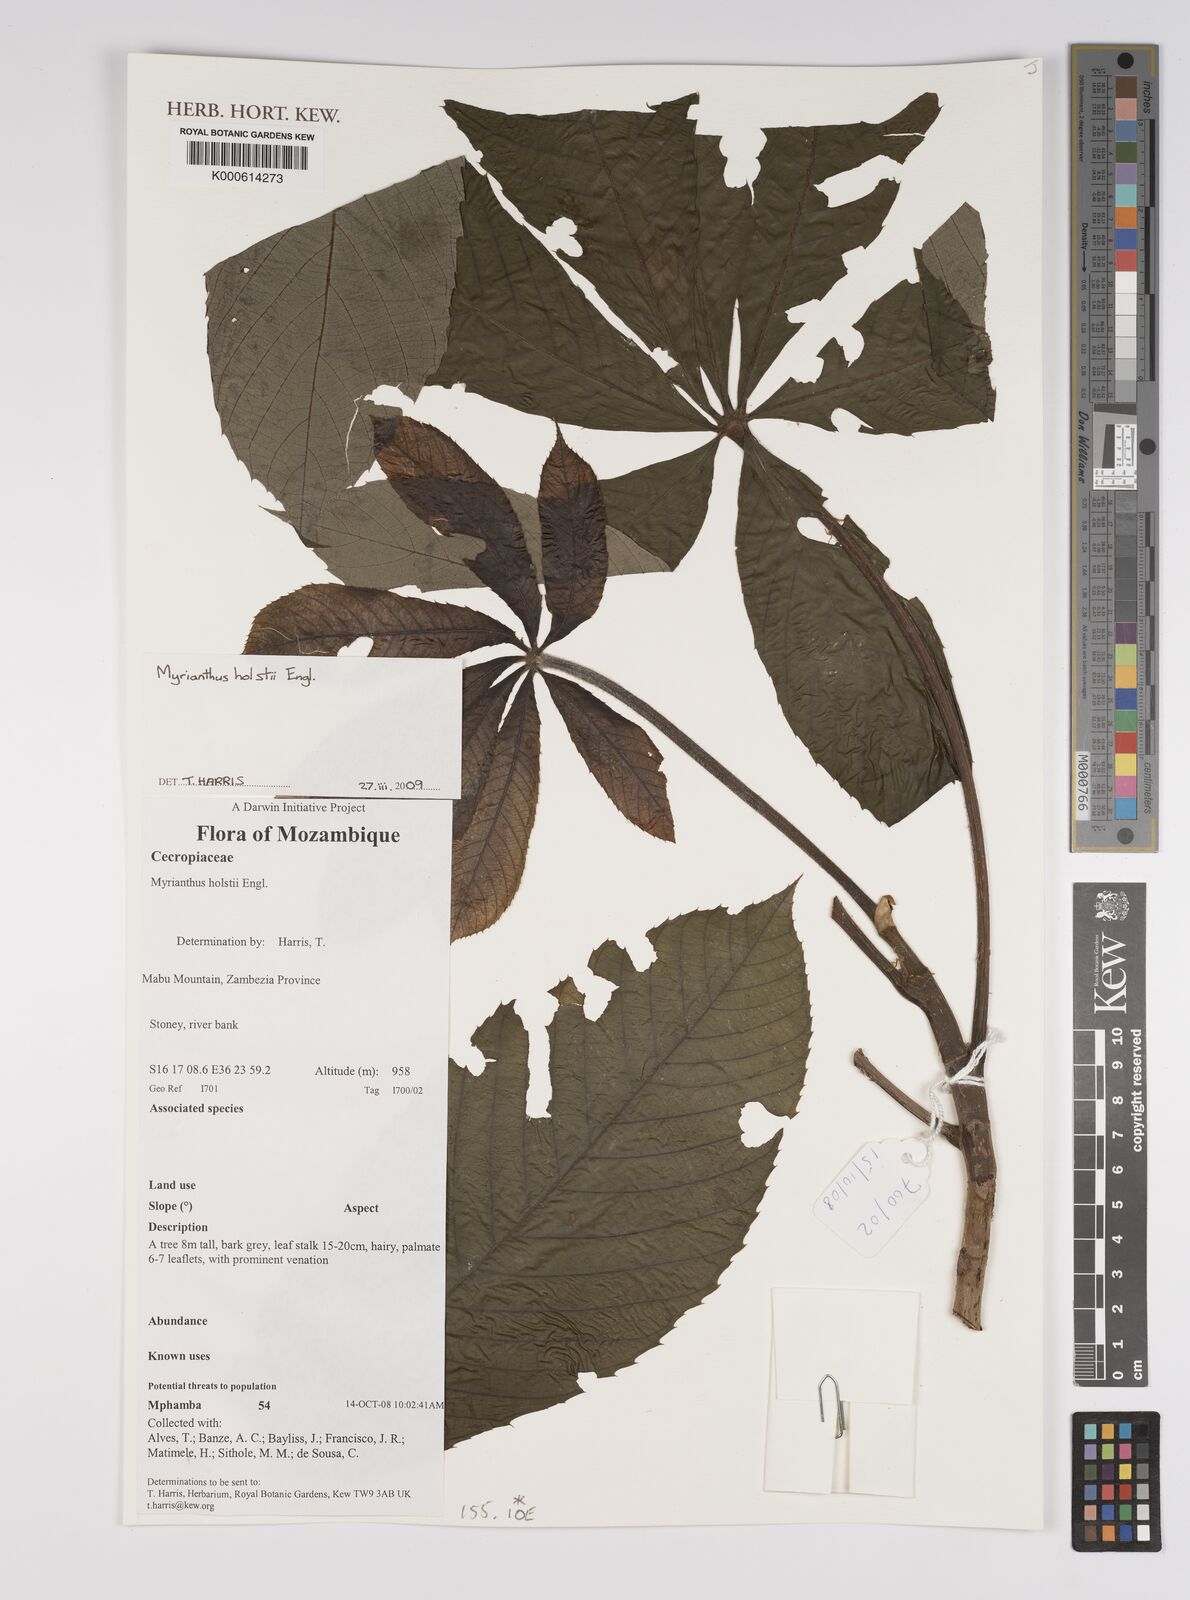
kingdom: Plantae
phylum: Tracheophyta
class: Magnoliopsida
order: Rosales
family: Urticaceae
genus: Myrianthus
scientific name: Myrianthus holstii
